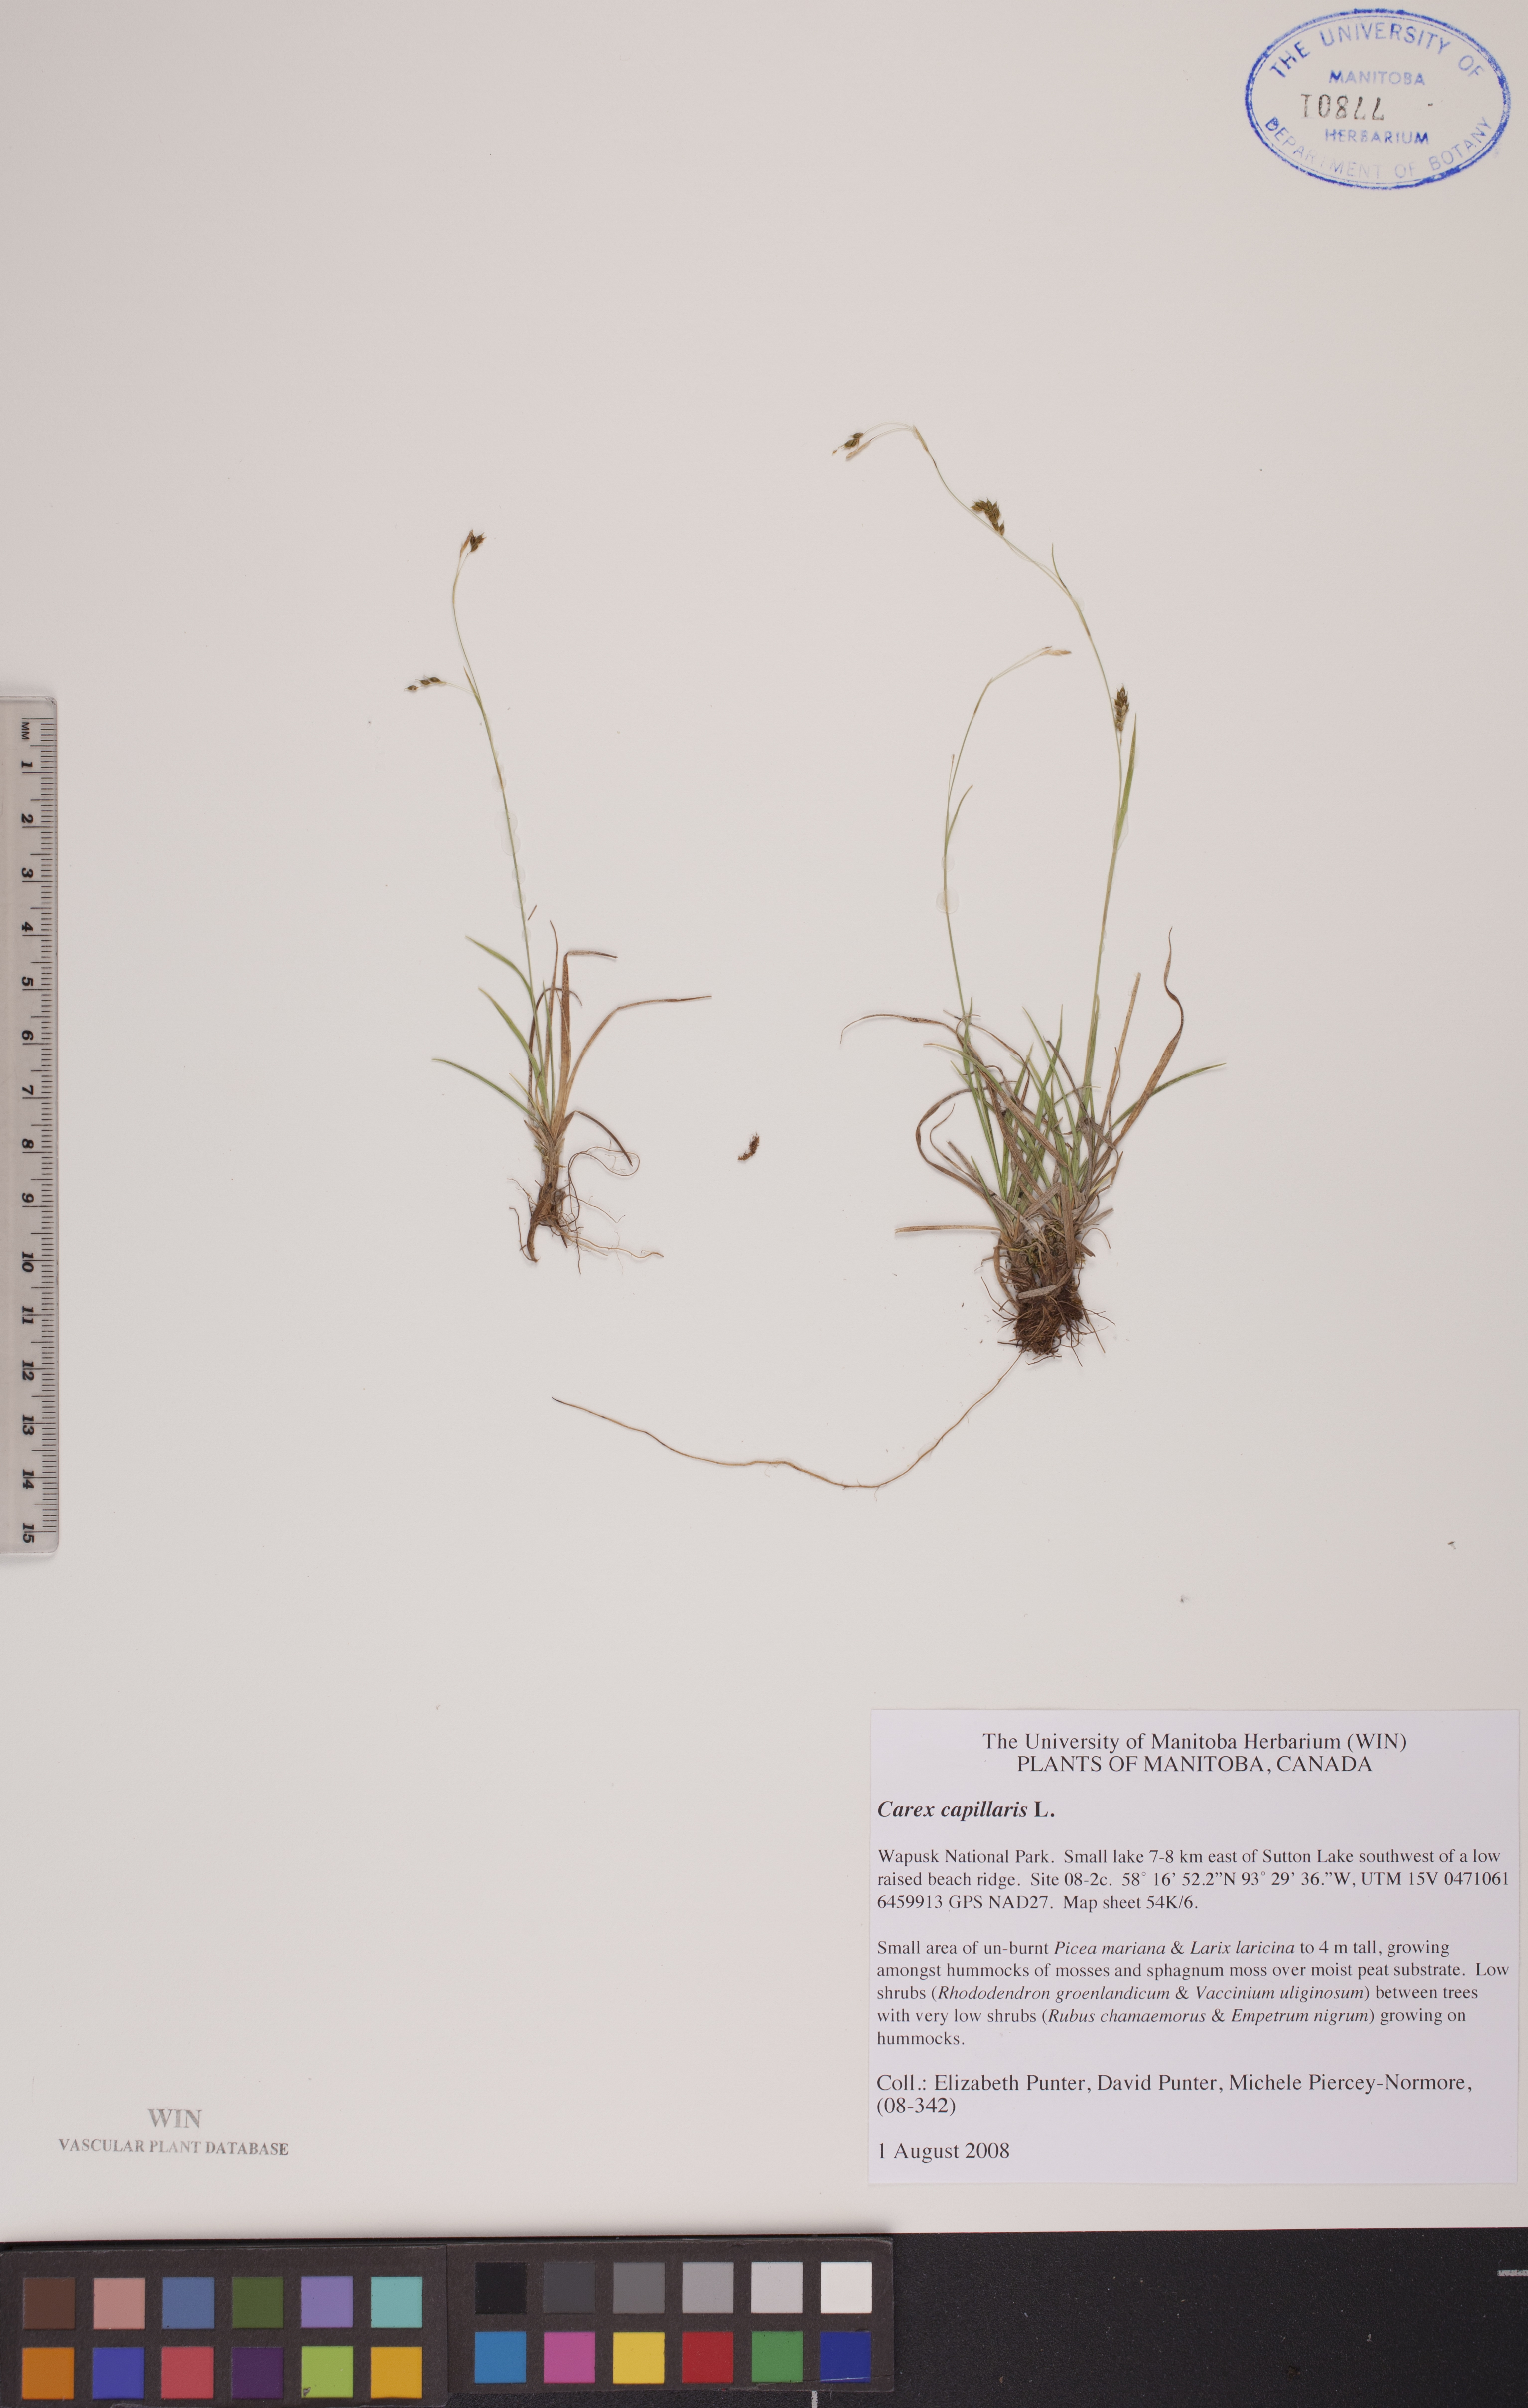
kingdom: Plantae
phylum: Tracheophyta
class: Liliopsida
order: Poales
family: Cyperaceae
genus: Carex
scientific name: Carex capillaris
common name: Hair sedge
